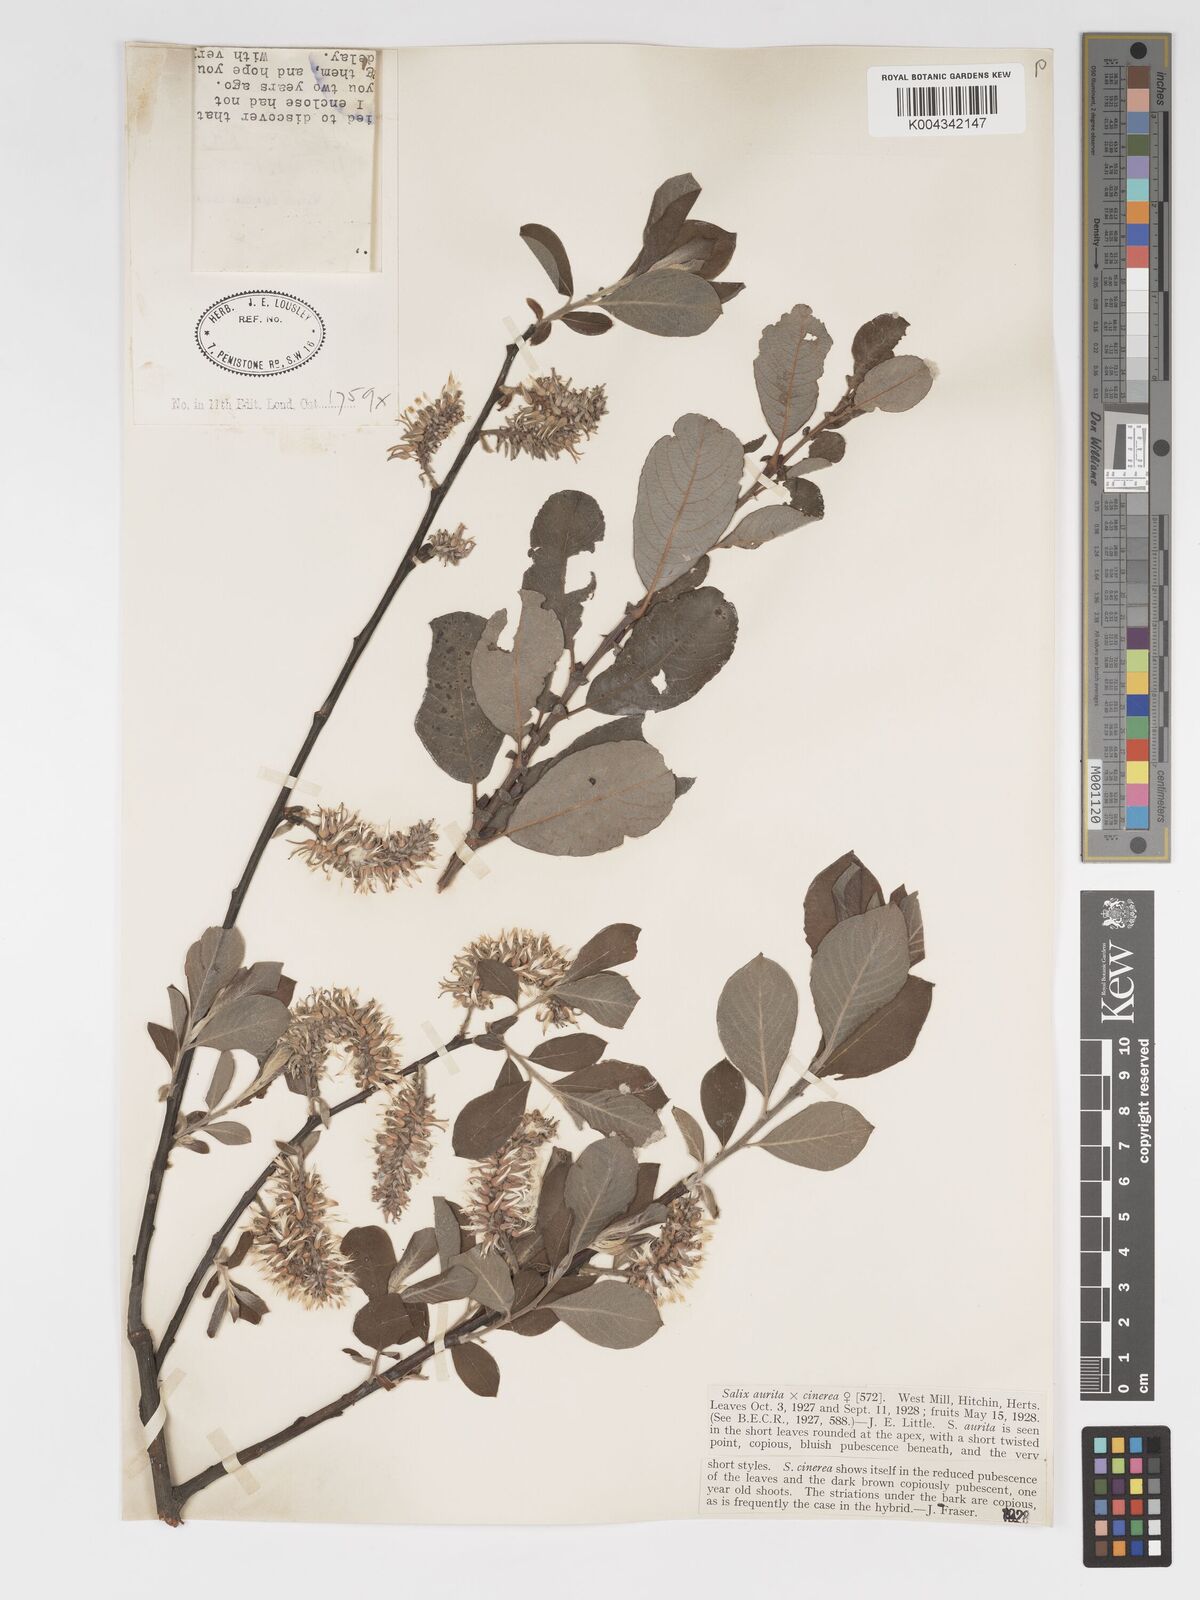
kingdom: Plantae
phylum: Tracheophyta
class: Magnoliopsida
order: Malpighiales
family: Salicaceae
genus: Salix
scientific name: Salix
